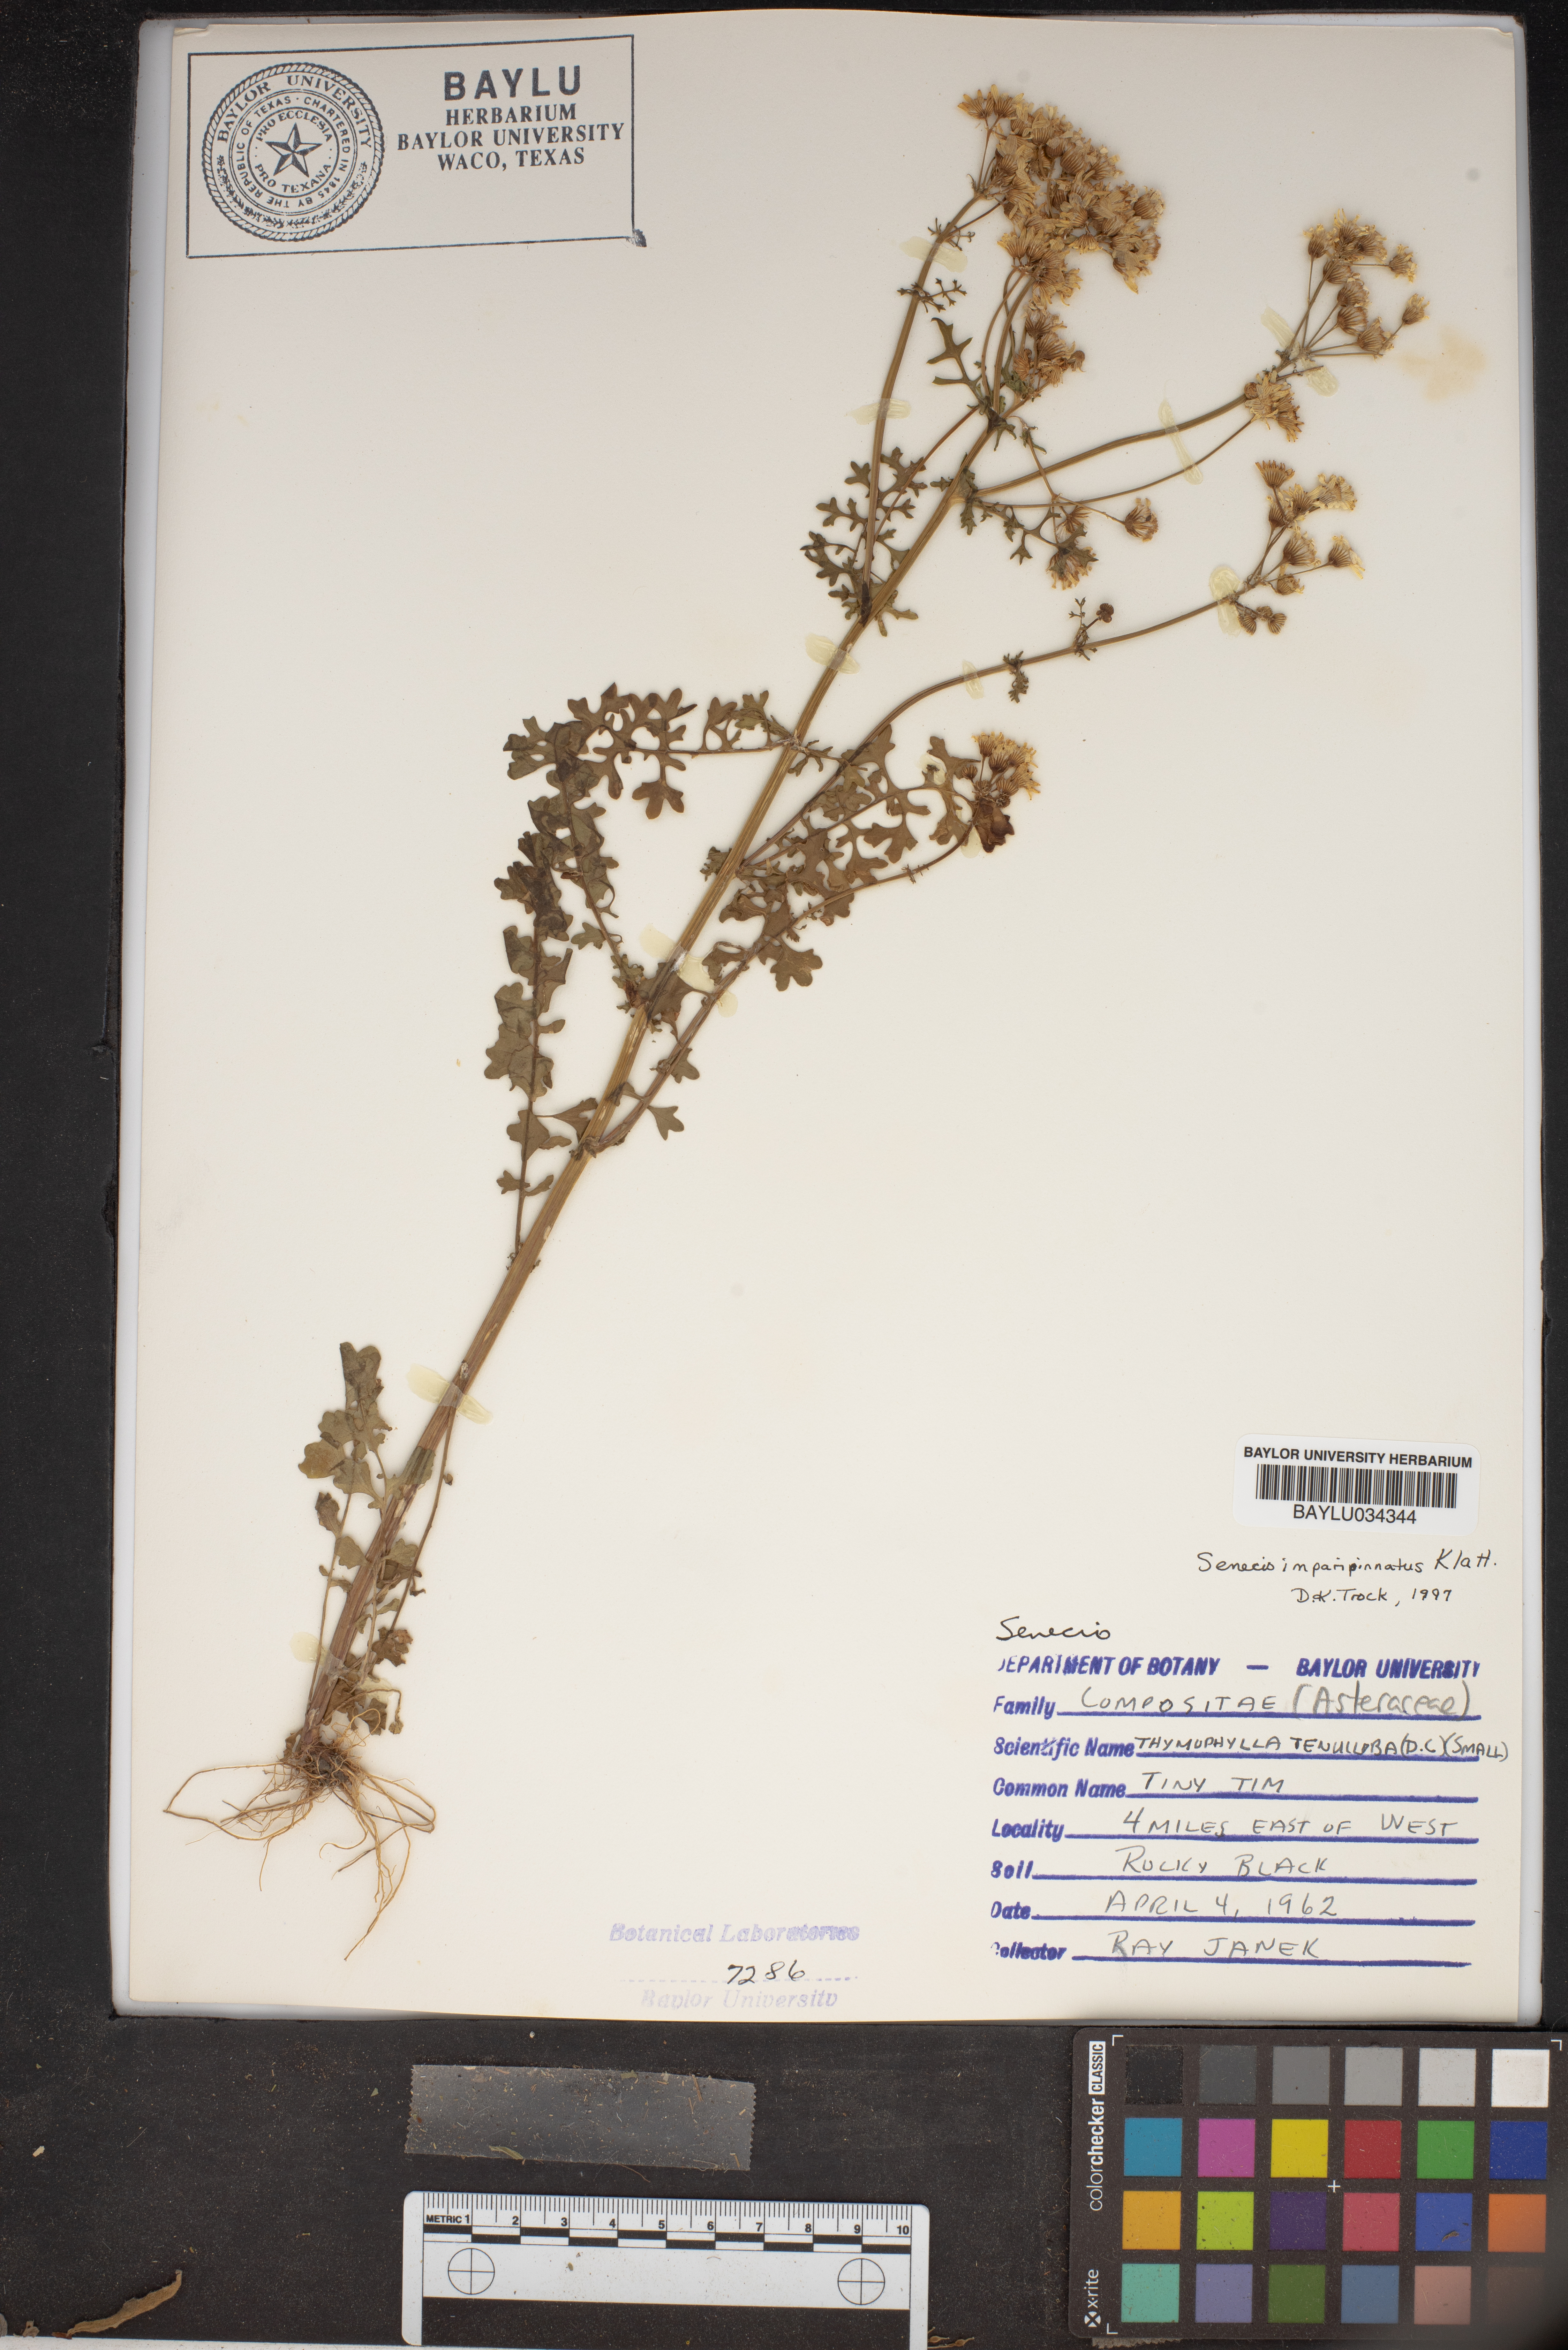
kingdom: Plantae
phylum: Tracheophyta
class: Magnoliopsida
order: Asterales
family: Asteraceae
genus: Thymophylla
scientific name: Thymophylla tenuiloba
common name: Dahlberg's daisy
